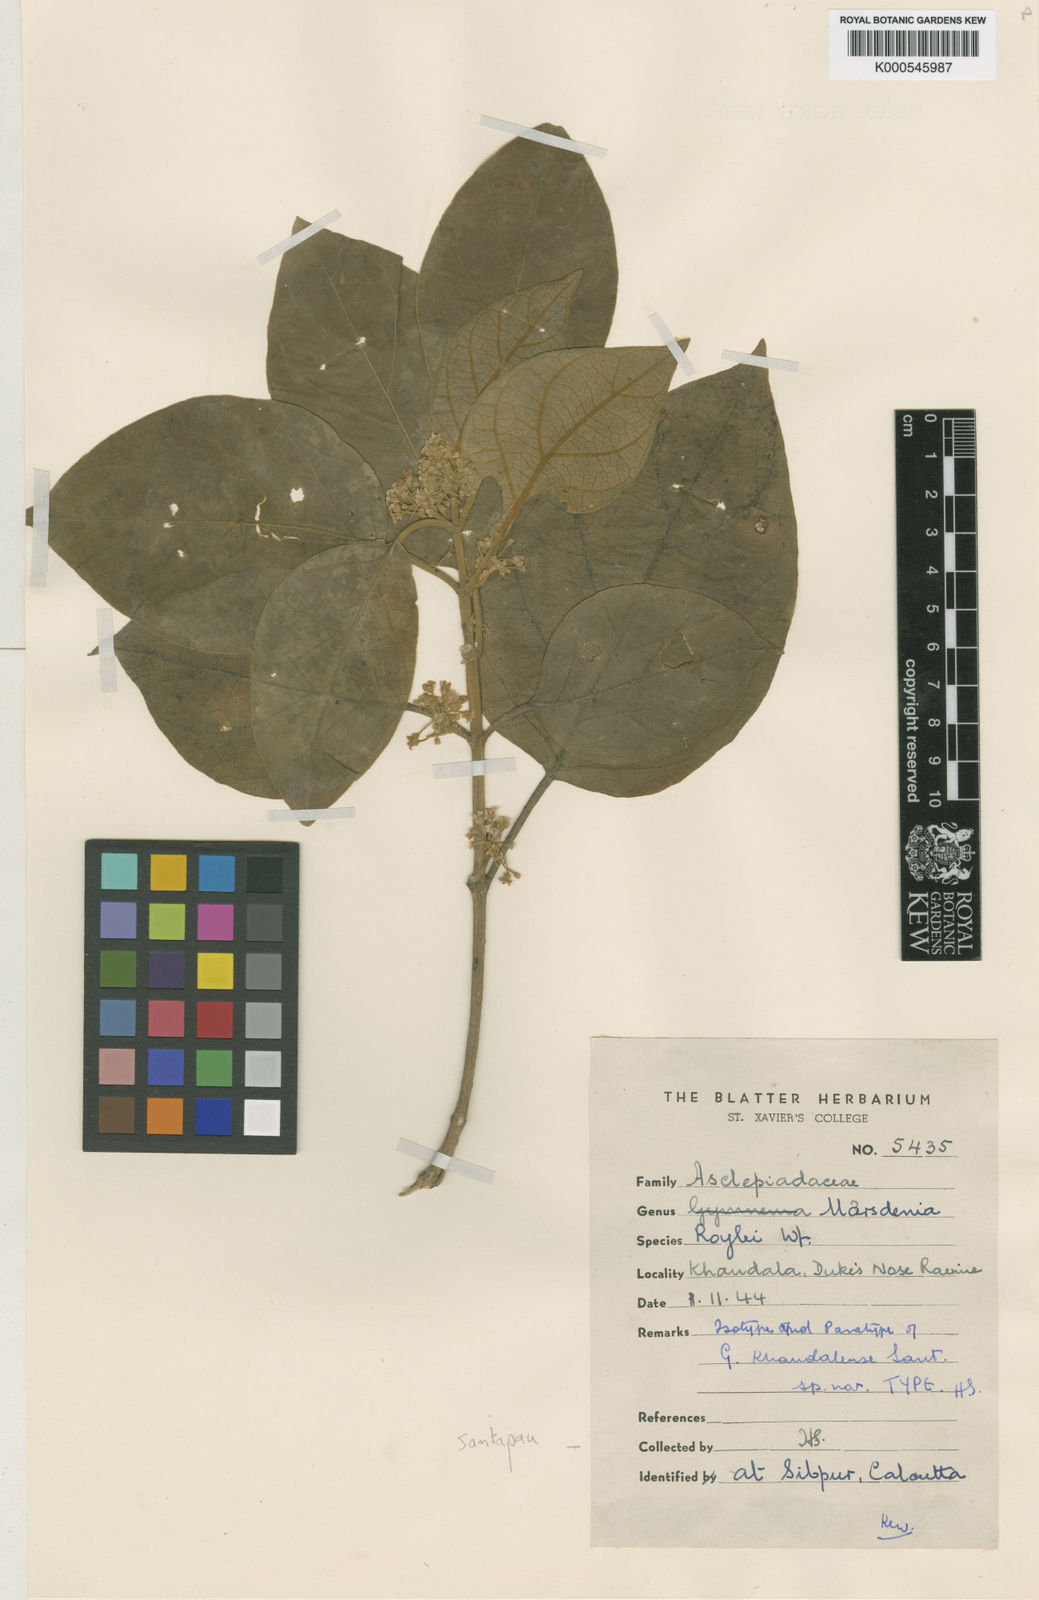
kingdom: Plantae
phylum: Tracheophyta
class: Magnoliopsida
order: Gentianales
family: Apocynaceae
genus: Gymnema
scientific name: Gymnema latifolium
